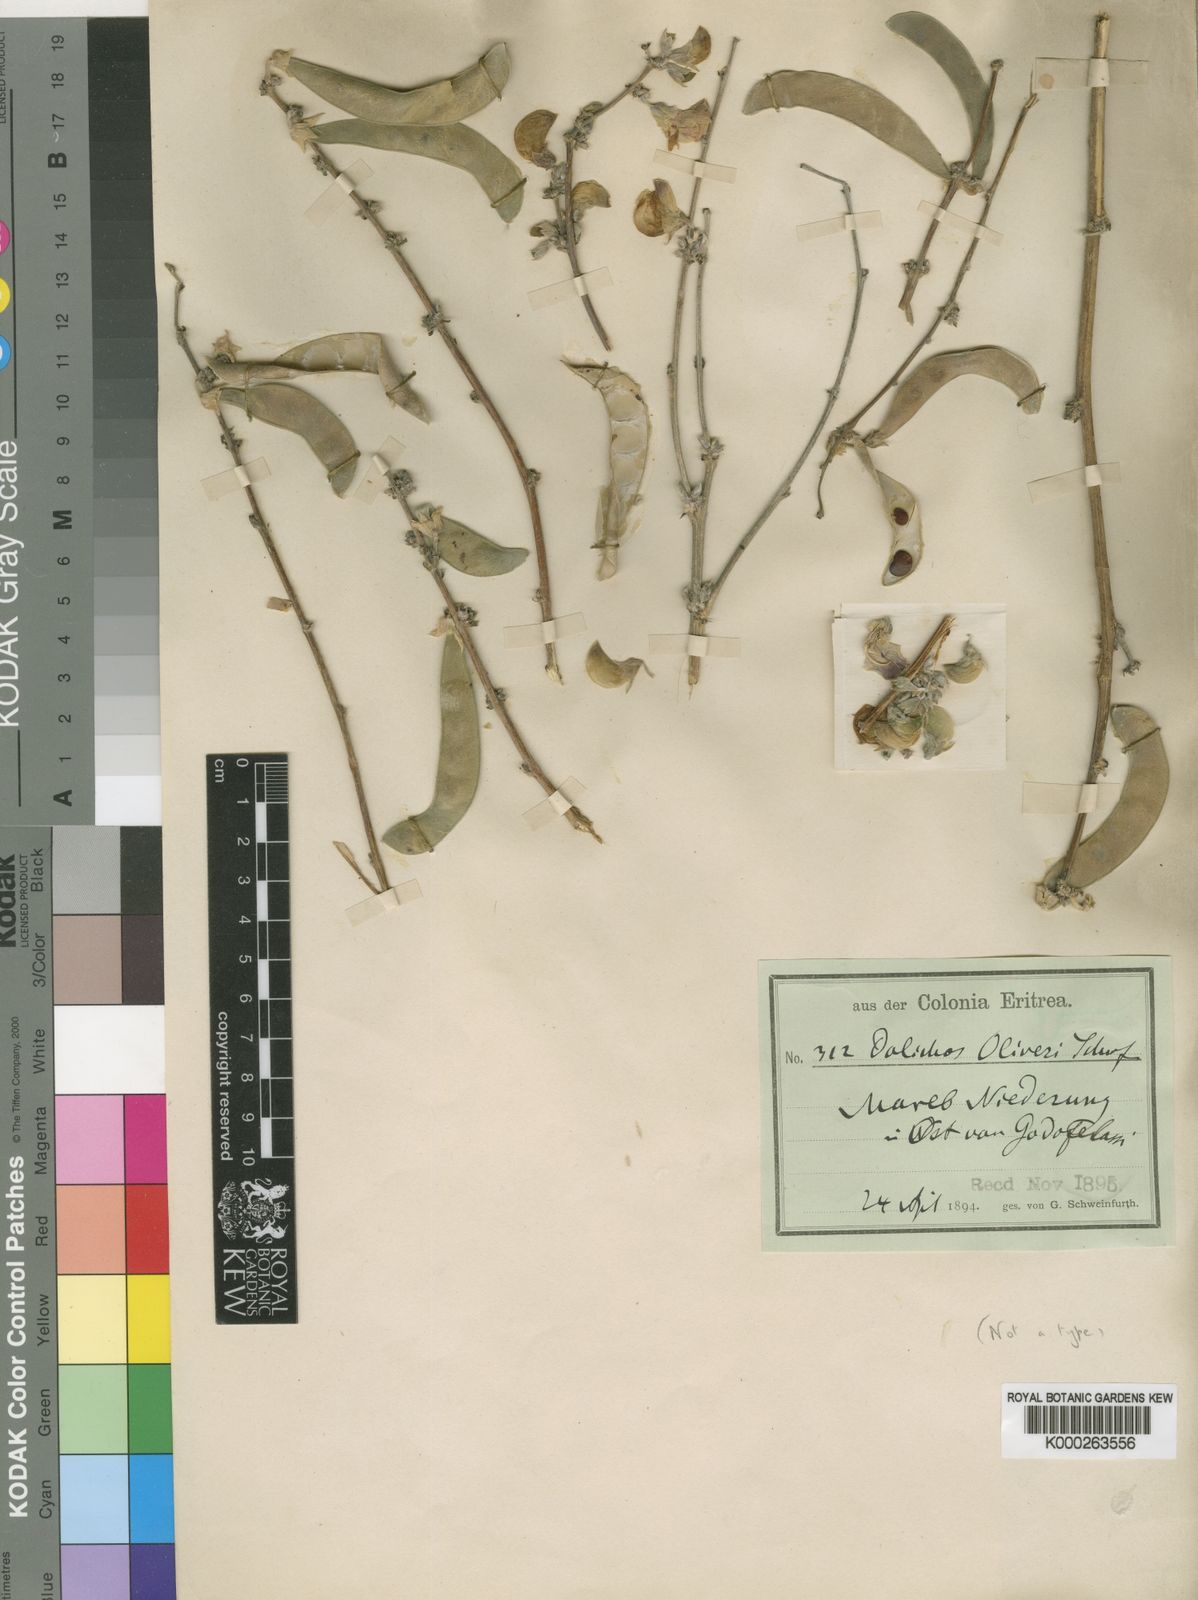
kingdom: Plantae
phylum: Tracheophyta
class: Magnoliopsida
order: Fabales
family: Fabaceae
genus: Dolichos
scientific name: Dolichos
